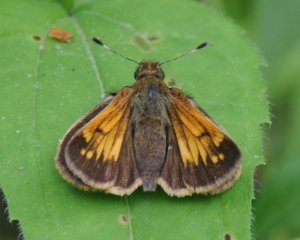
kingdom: Animalia
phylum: Arthropoda
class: Insecta
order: Lepidoptera
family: Hesperiidae
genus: Lon
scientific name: Lon hobomok
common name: Hobomok Skipper
